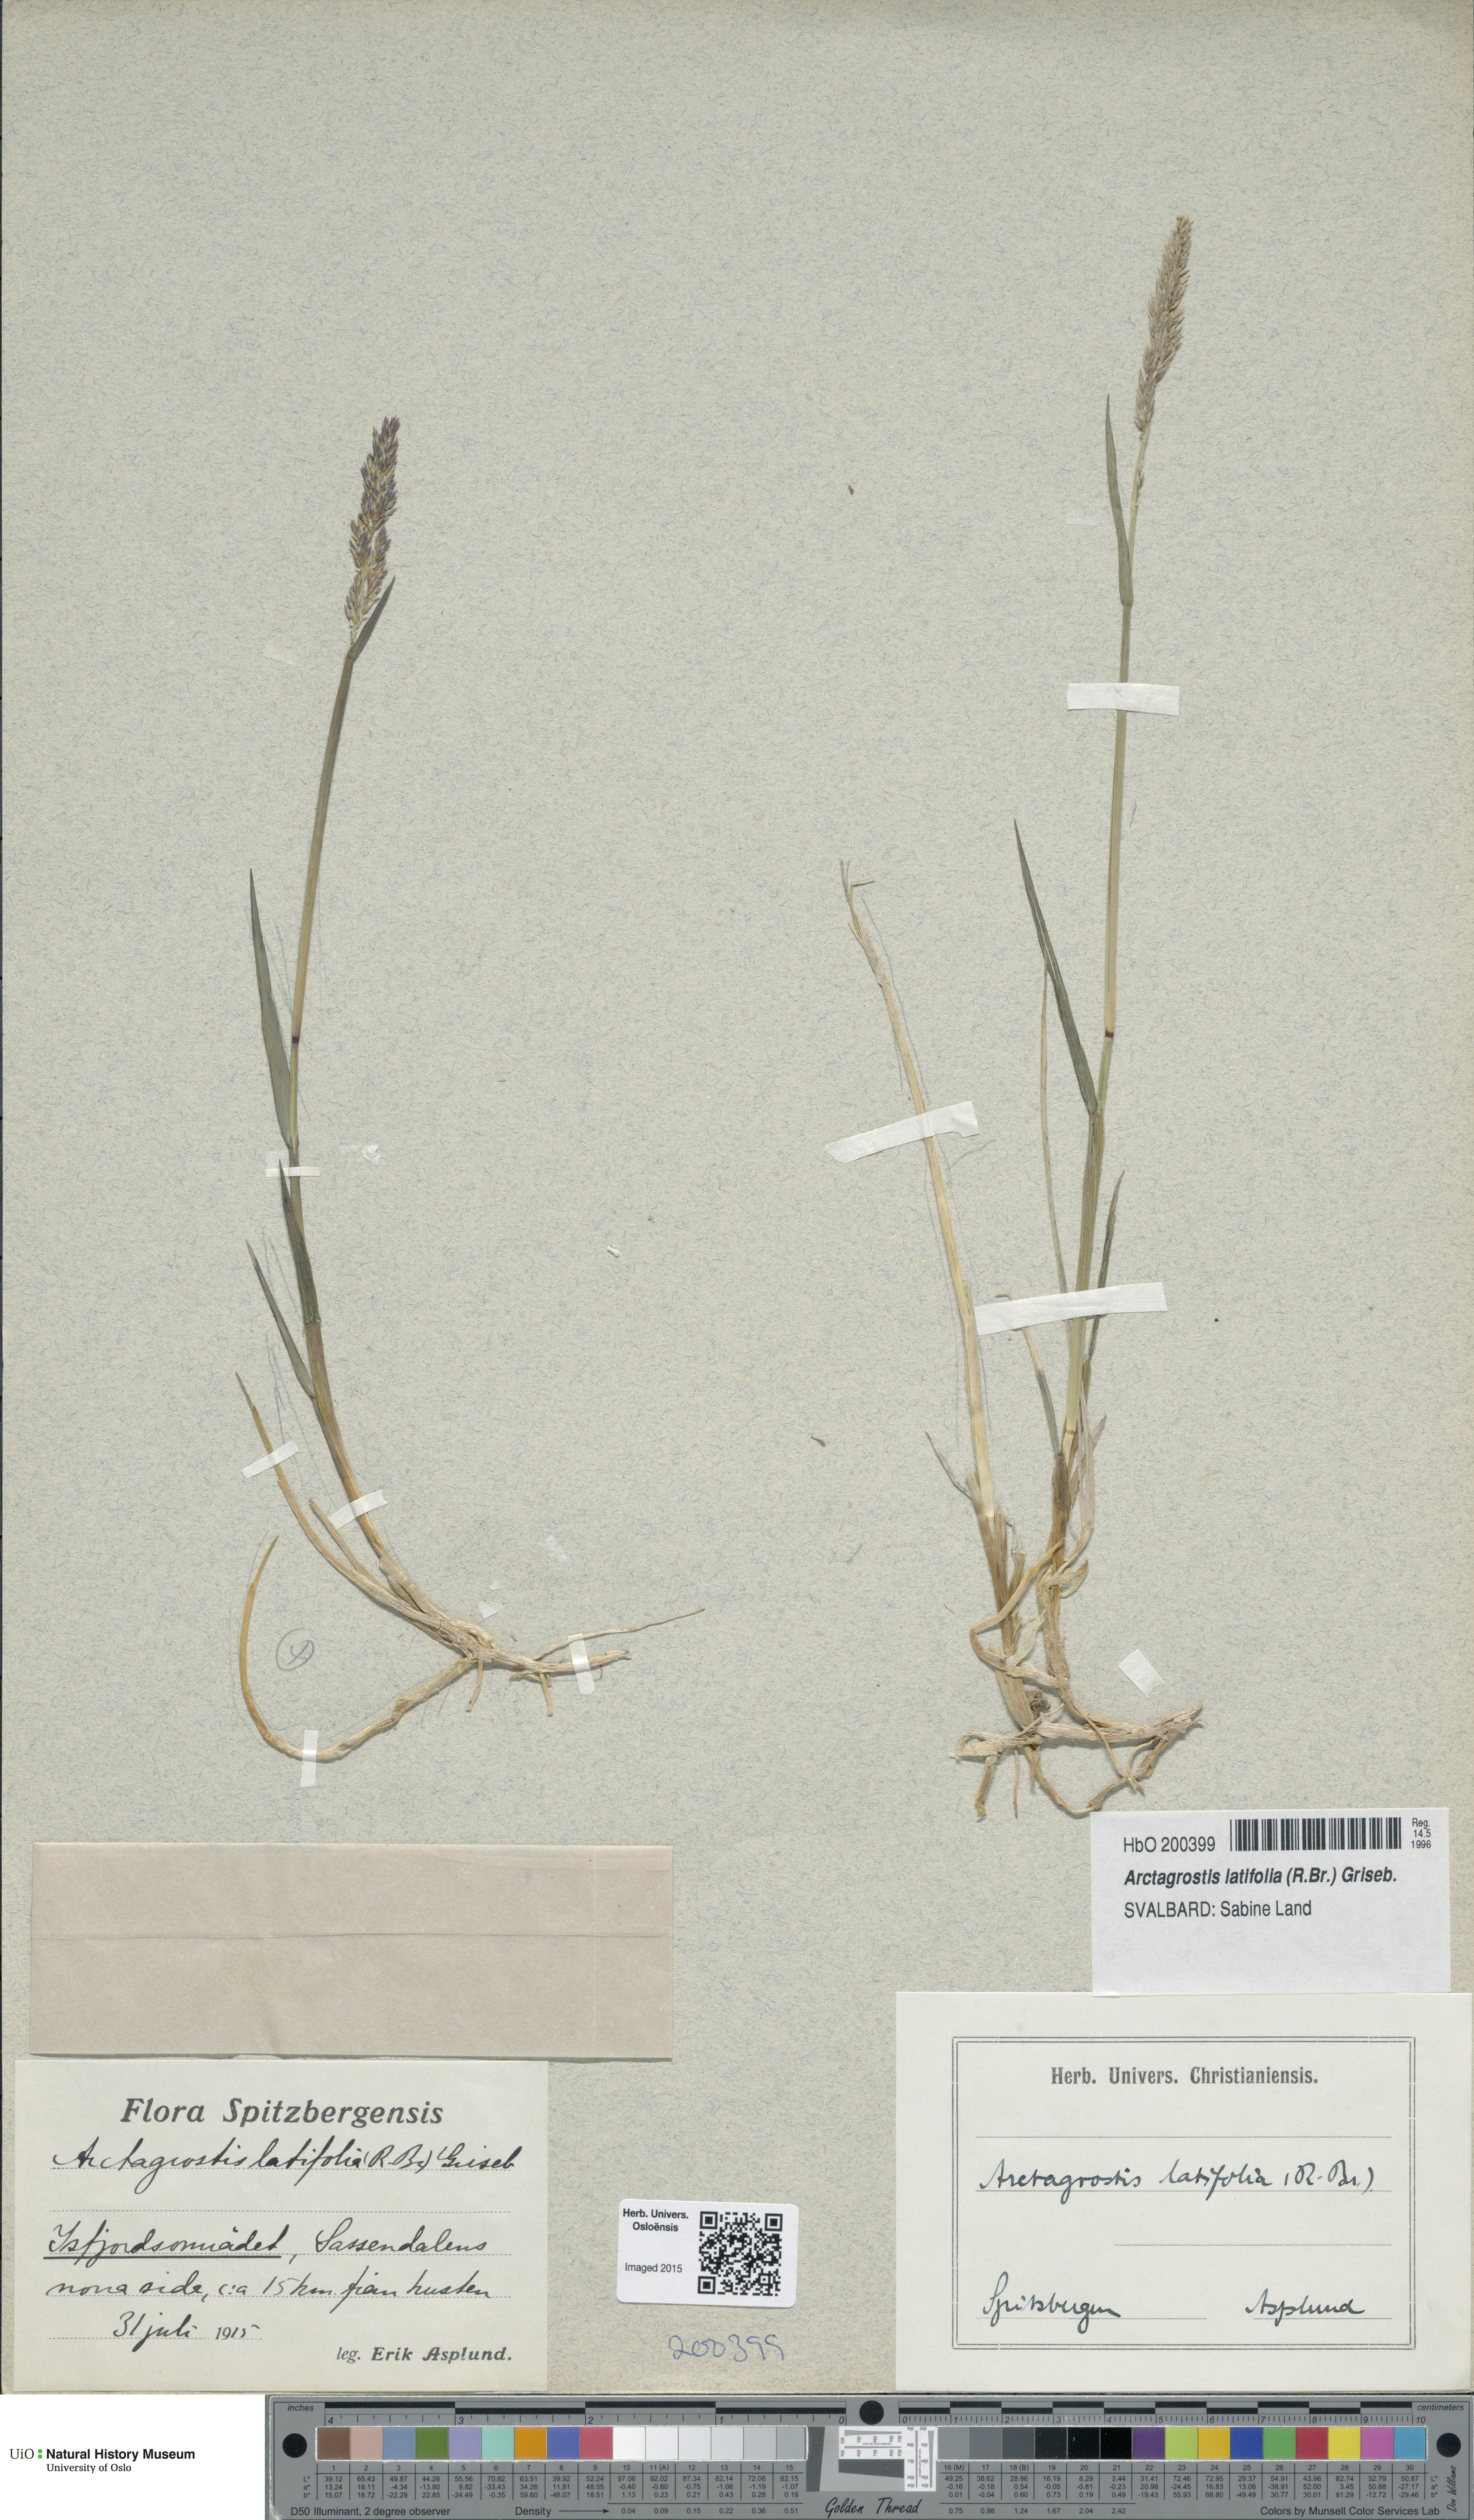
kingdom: Plantae
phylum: Tracheophyta
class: Liliopsida
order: Poales
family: Poaceae
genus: Arctagrostis
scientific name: Arctagrostis latifolia
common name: Arctic grass
